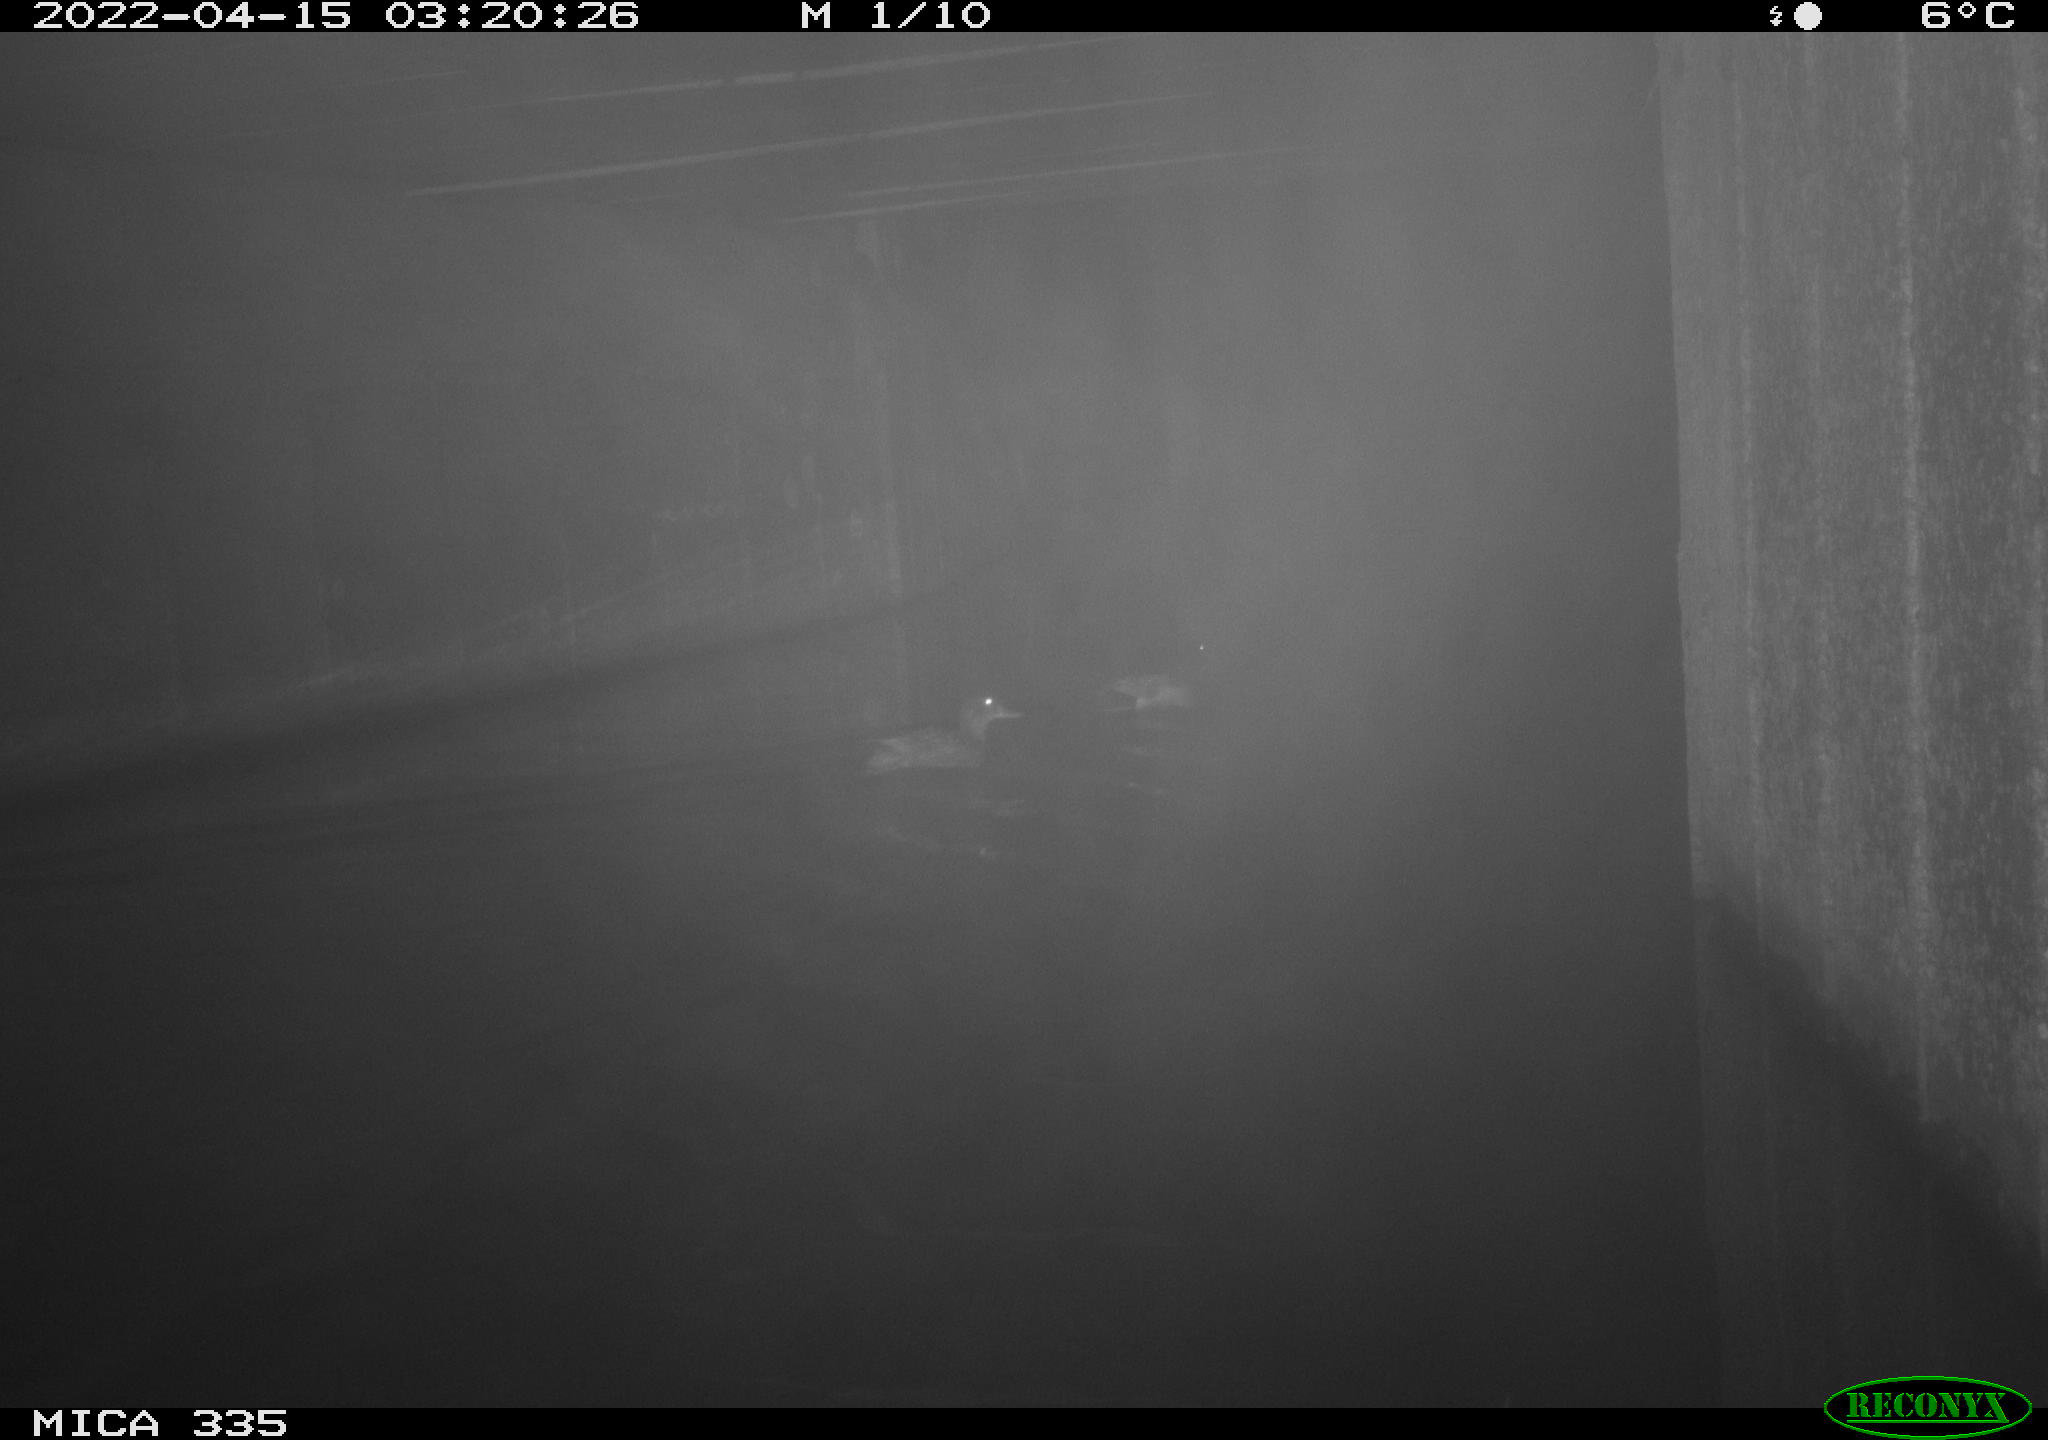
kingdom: Animalia
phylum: Chordata
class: Aves
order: Anseriformes
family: Anatidae
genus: Anas
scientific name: Anas platyrhynchos
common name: Mallard
